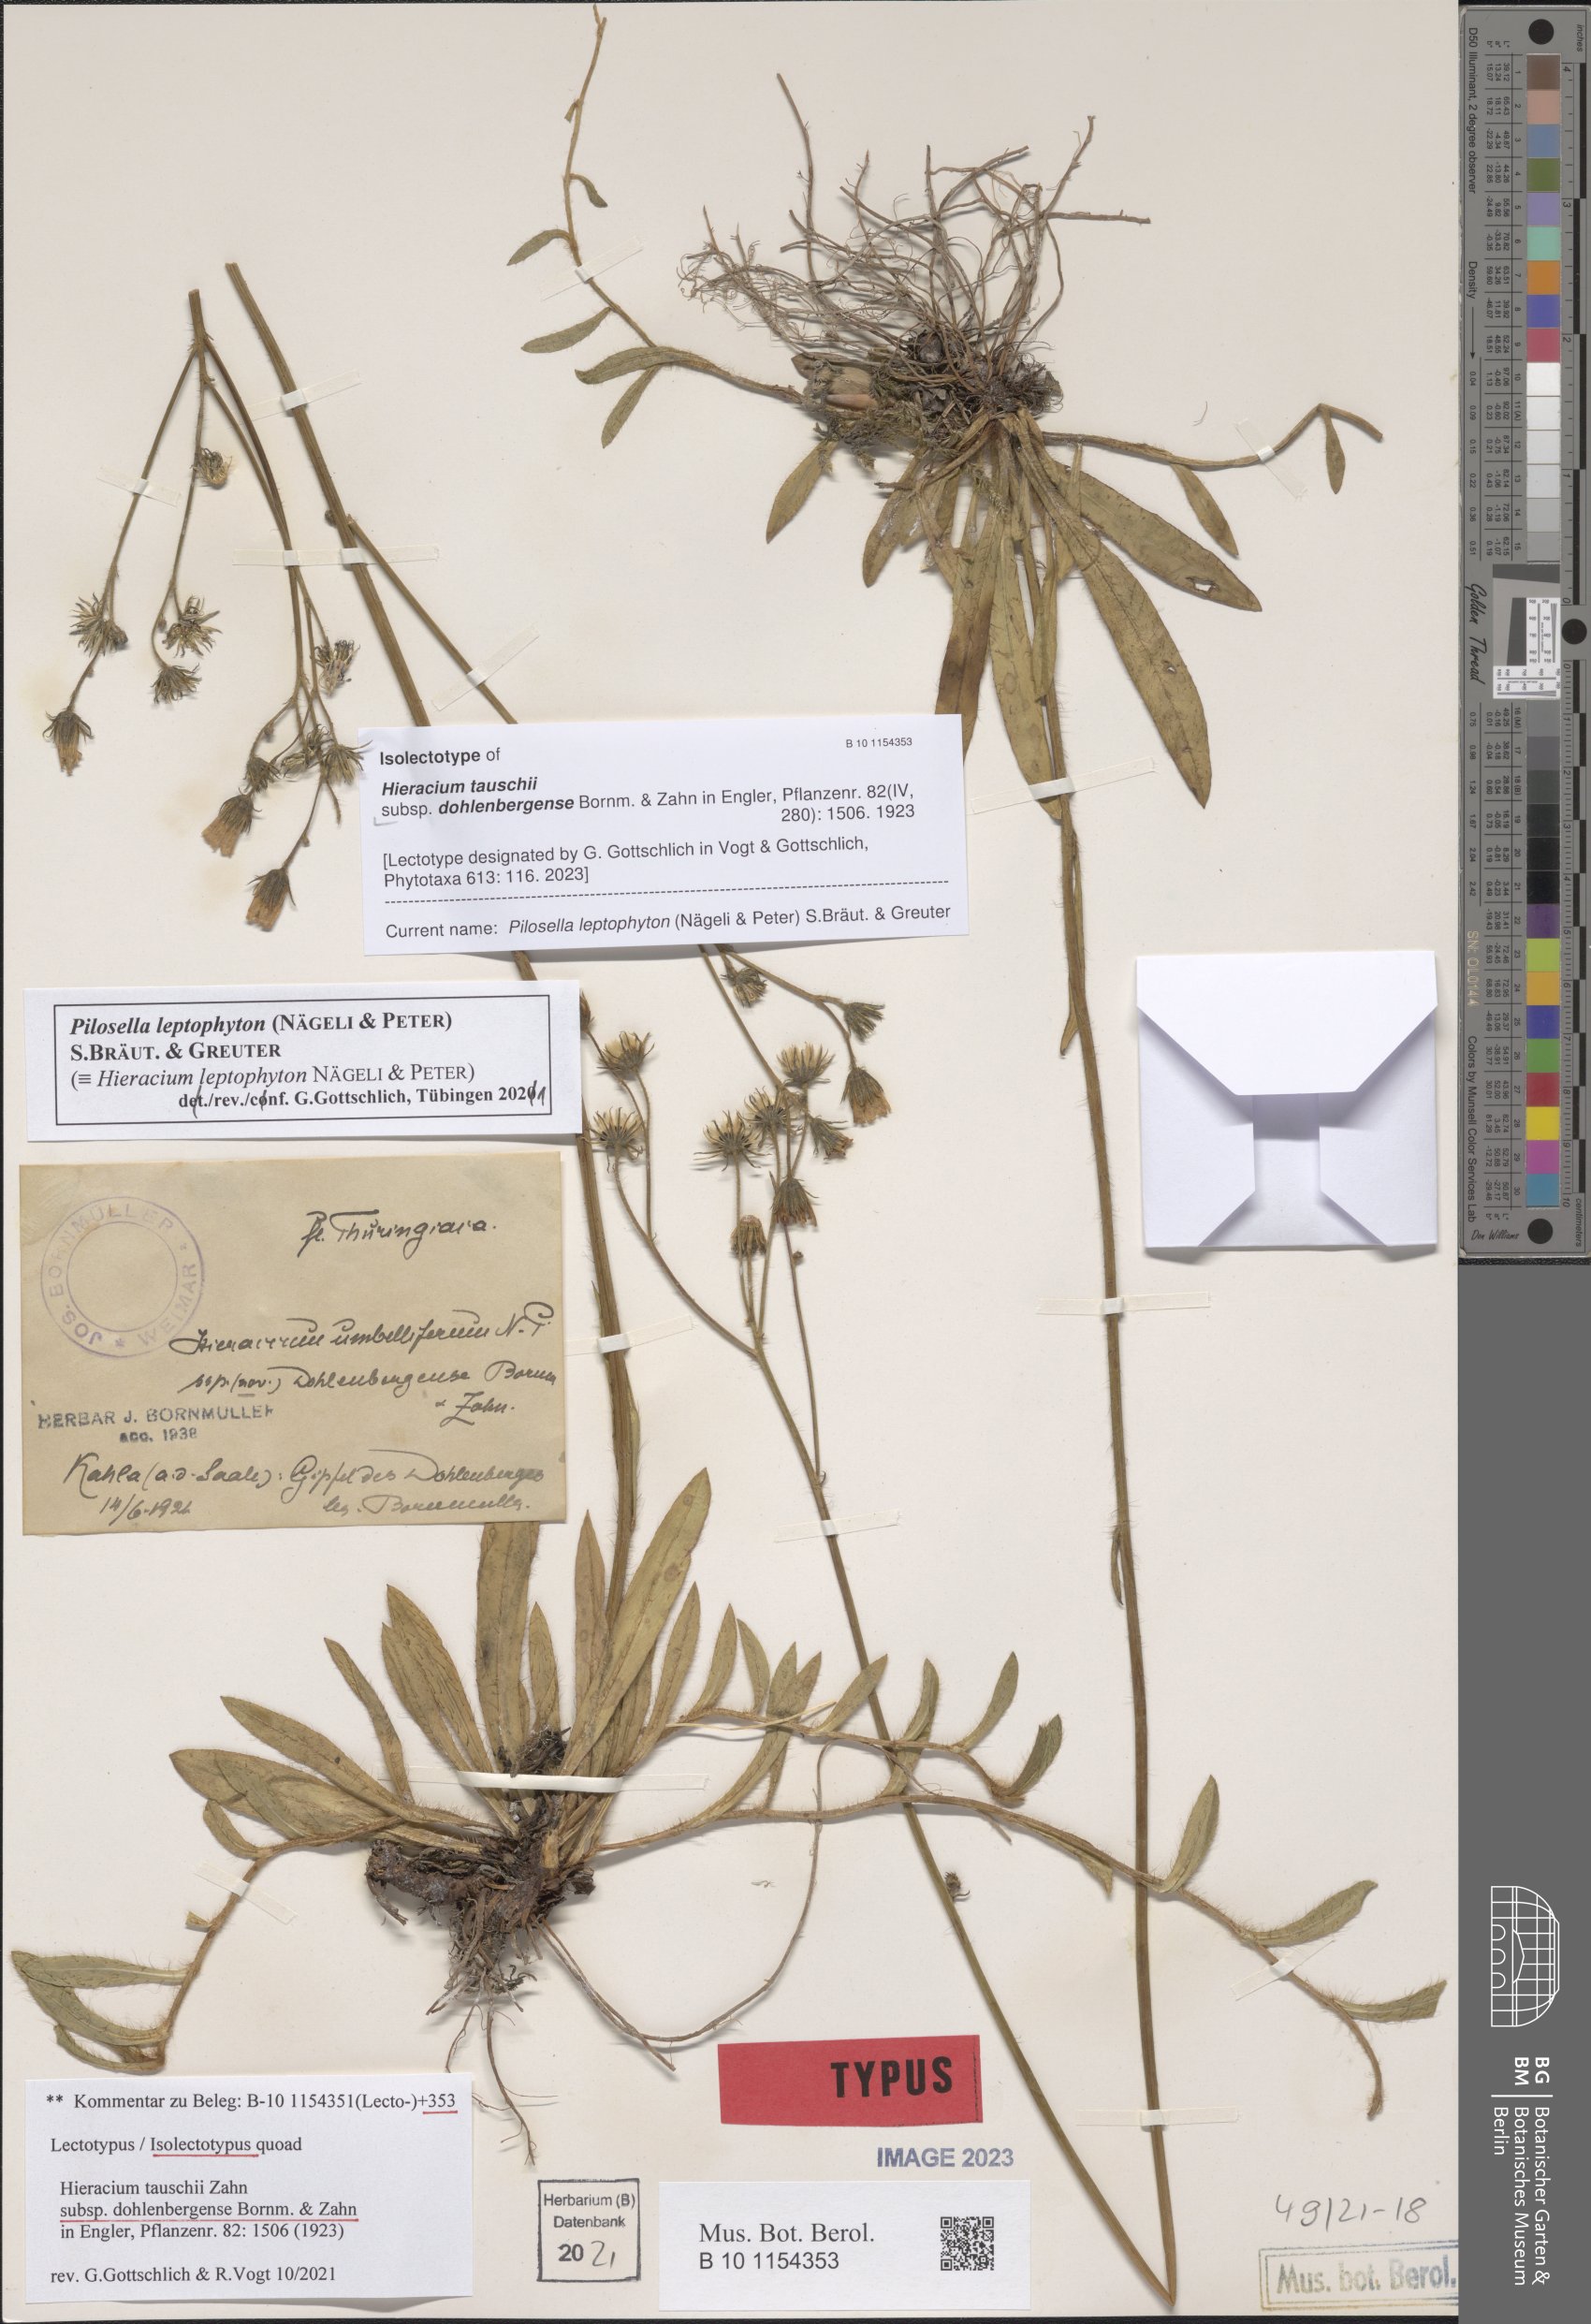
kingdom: Plantae
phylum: Tracheophyta
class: Magnoliopsida
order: Asterales
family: Asteraceae
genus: Pilosella
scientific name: Pilosella densiflora
